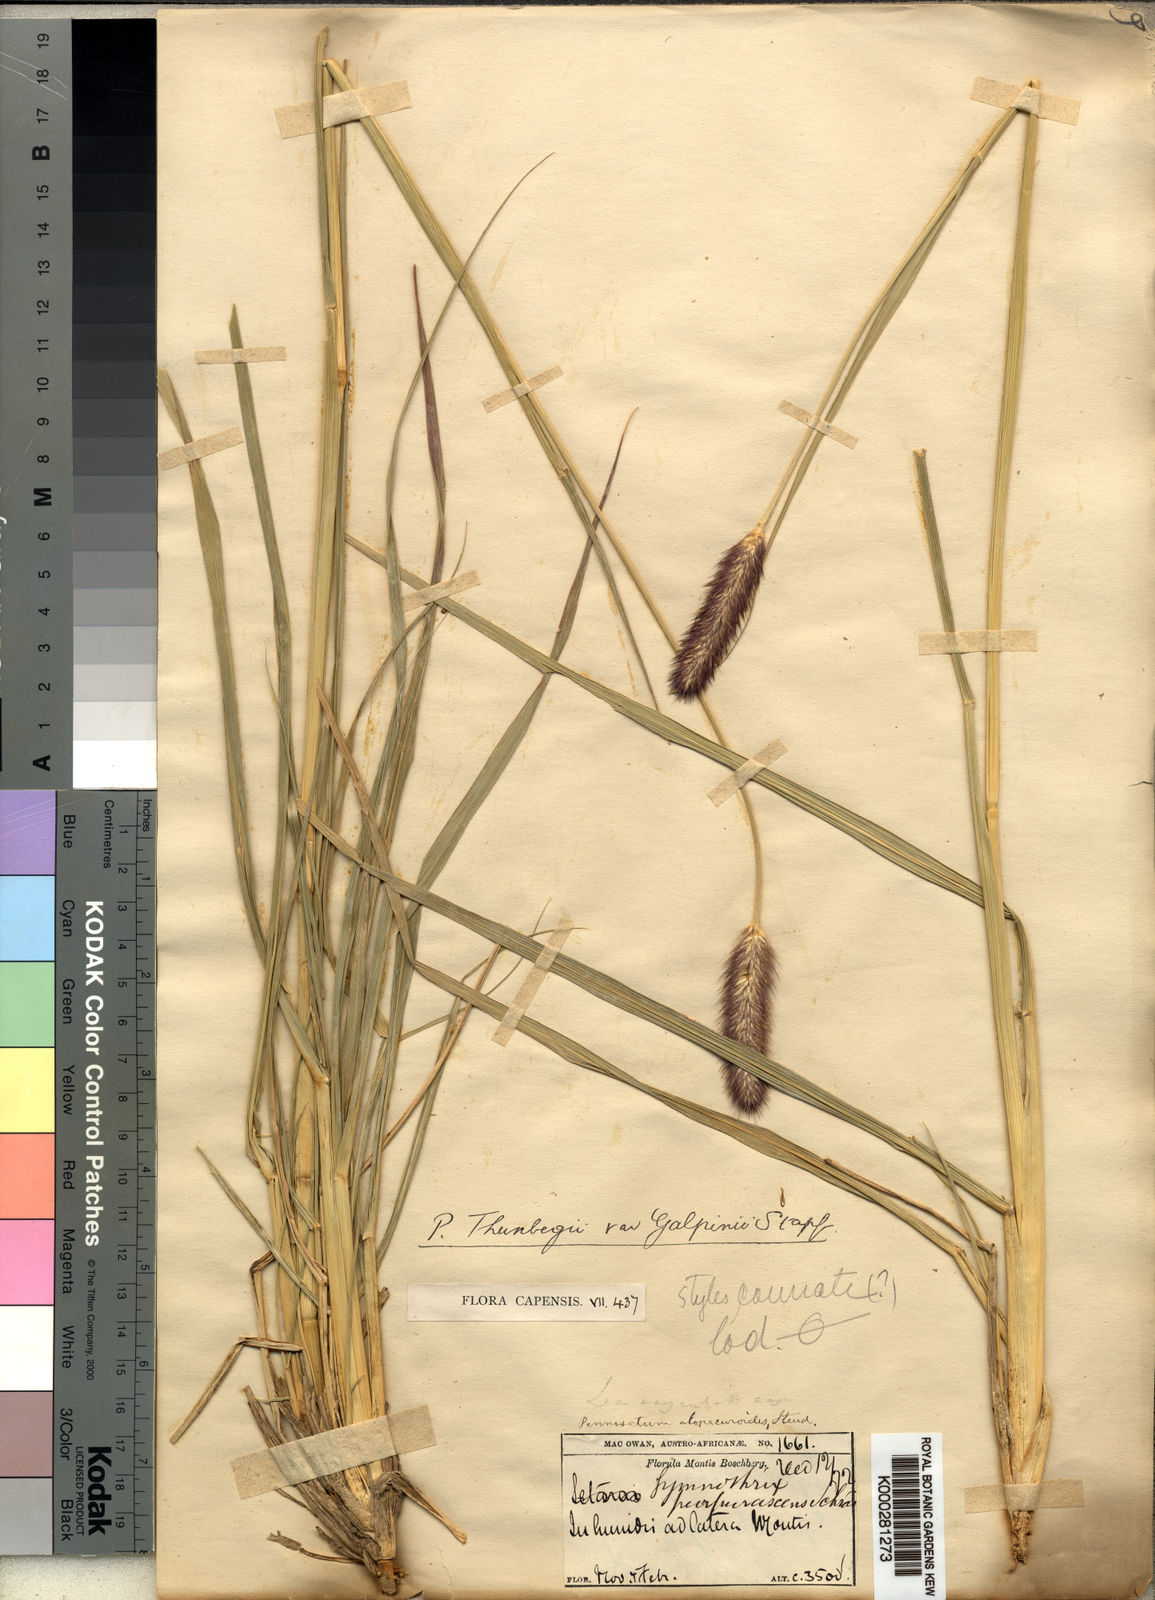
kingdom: Plantae
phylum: Tracheophyta
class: Liliopsida
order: Poales
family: Poaceae
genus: Cenchrus
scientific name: Cenchrus geniculatus
